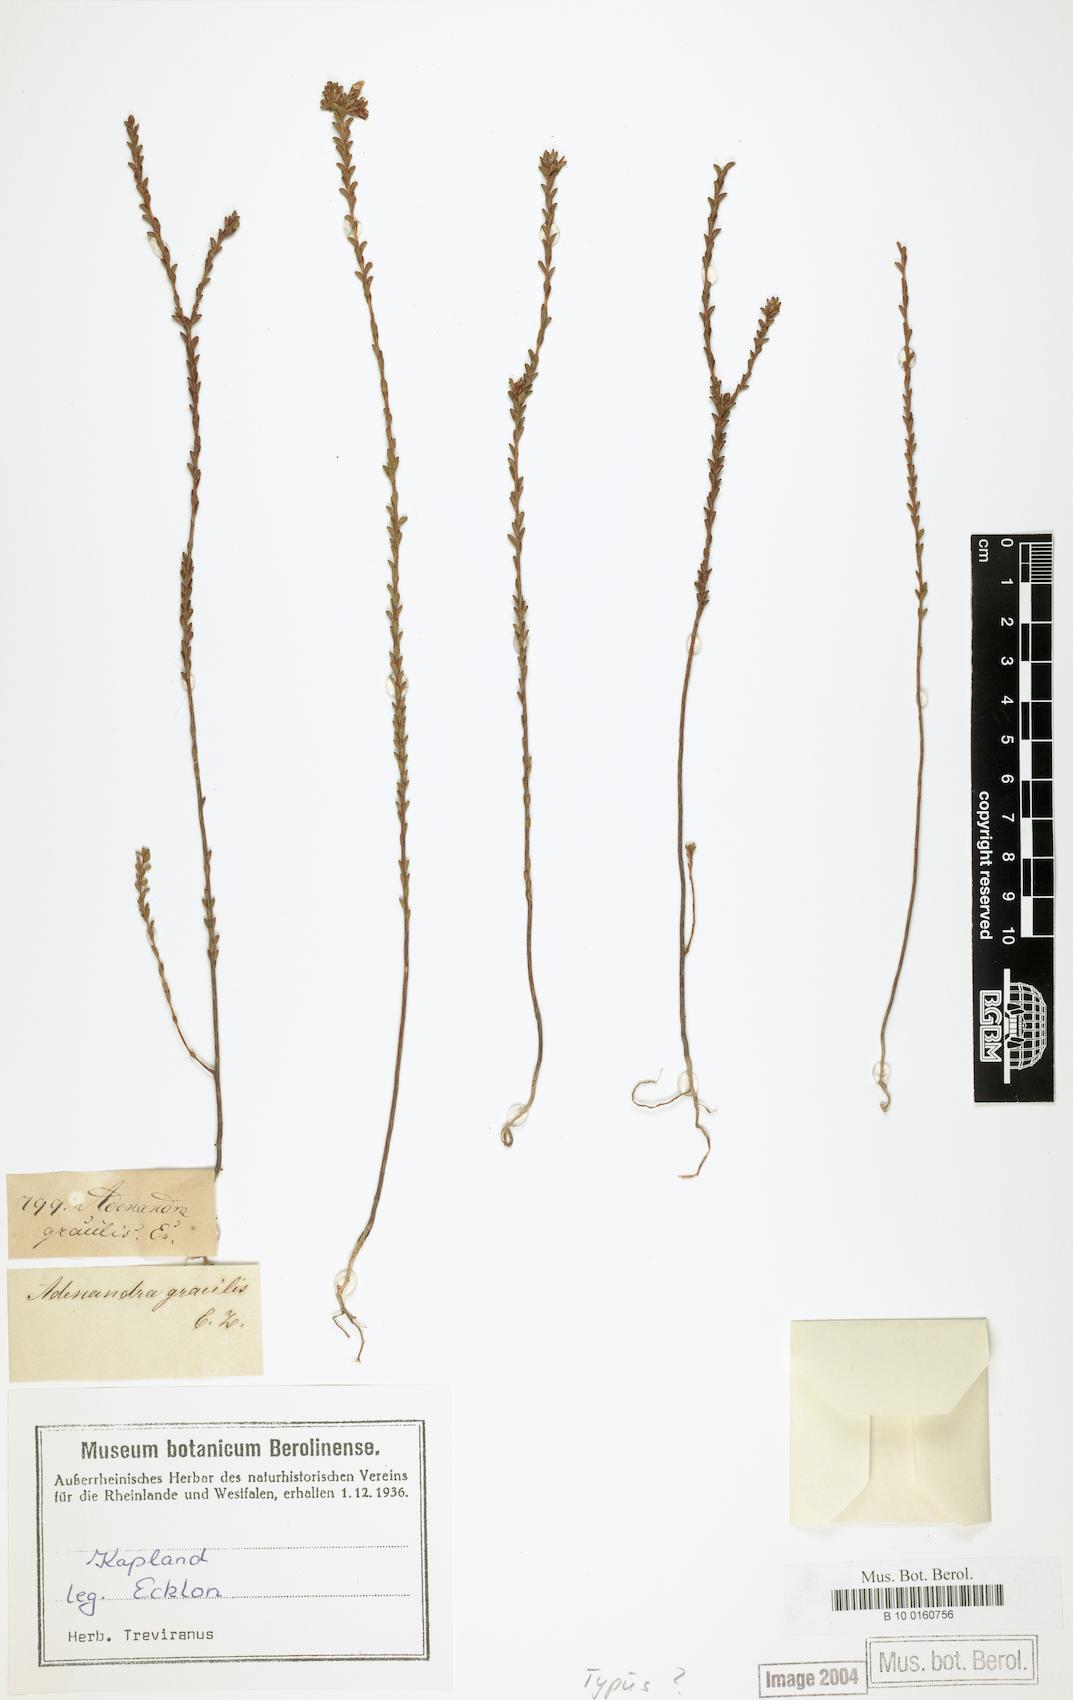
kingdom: Plantae
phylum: Tracheophyta
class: Magnoliopsida
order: Sapindales
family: Rutaceae
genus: Adenandra
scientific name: Adenandra gracilis
